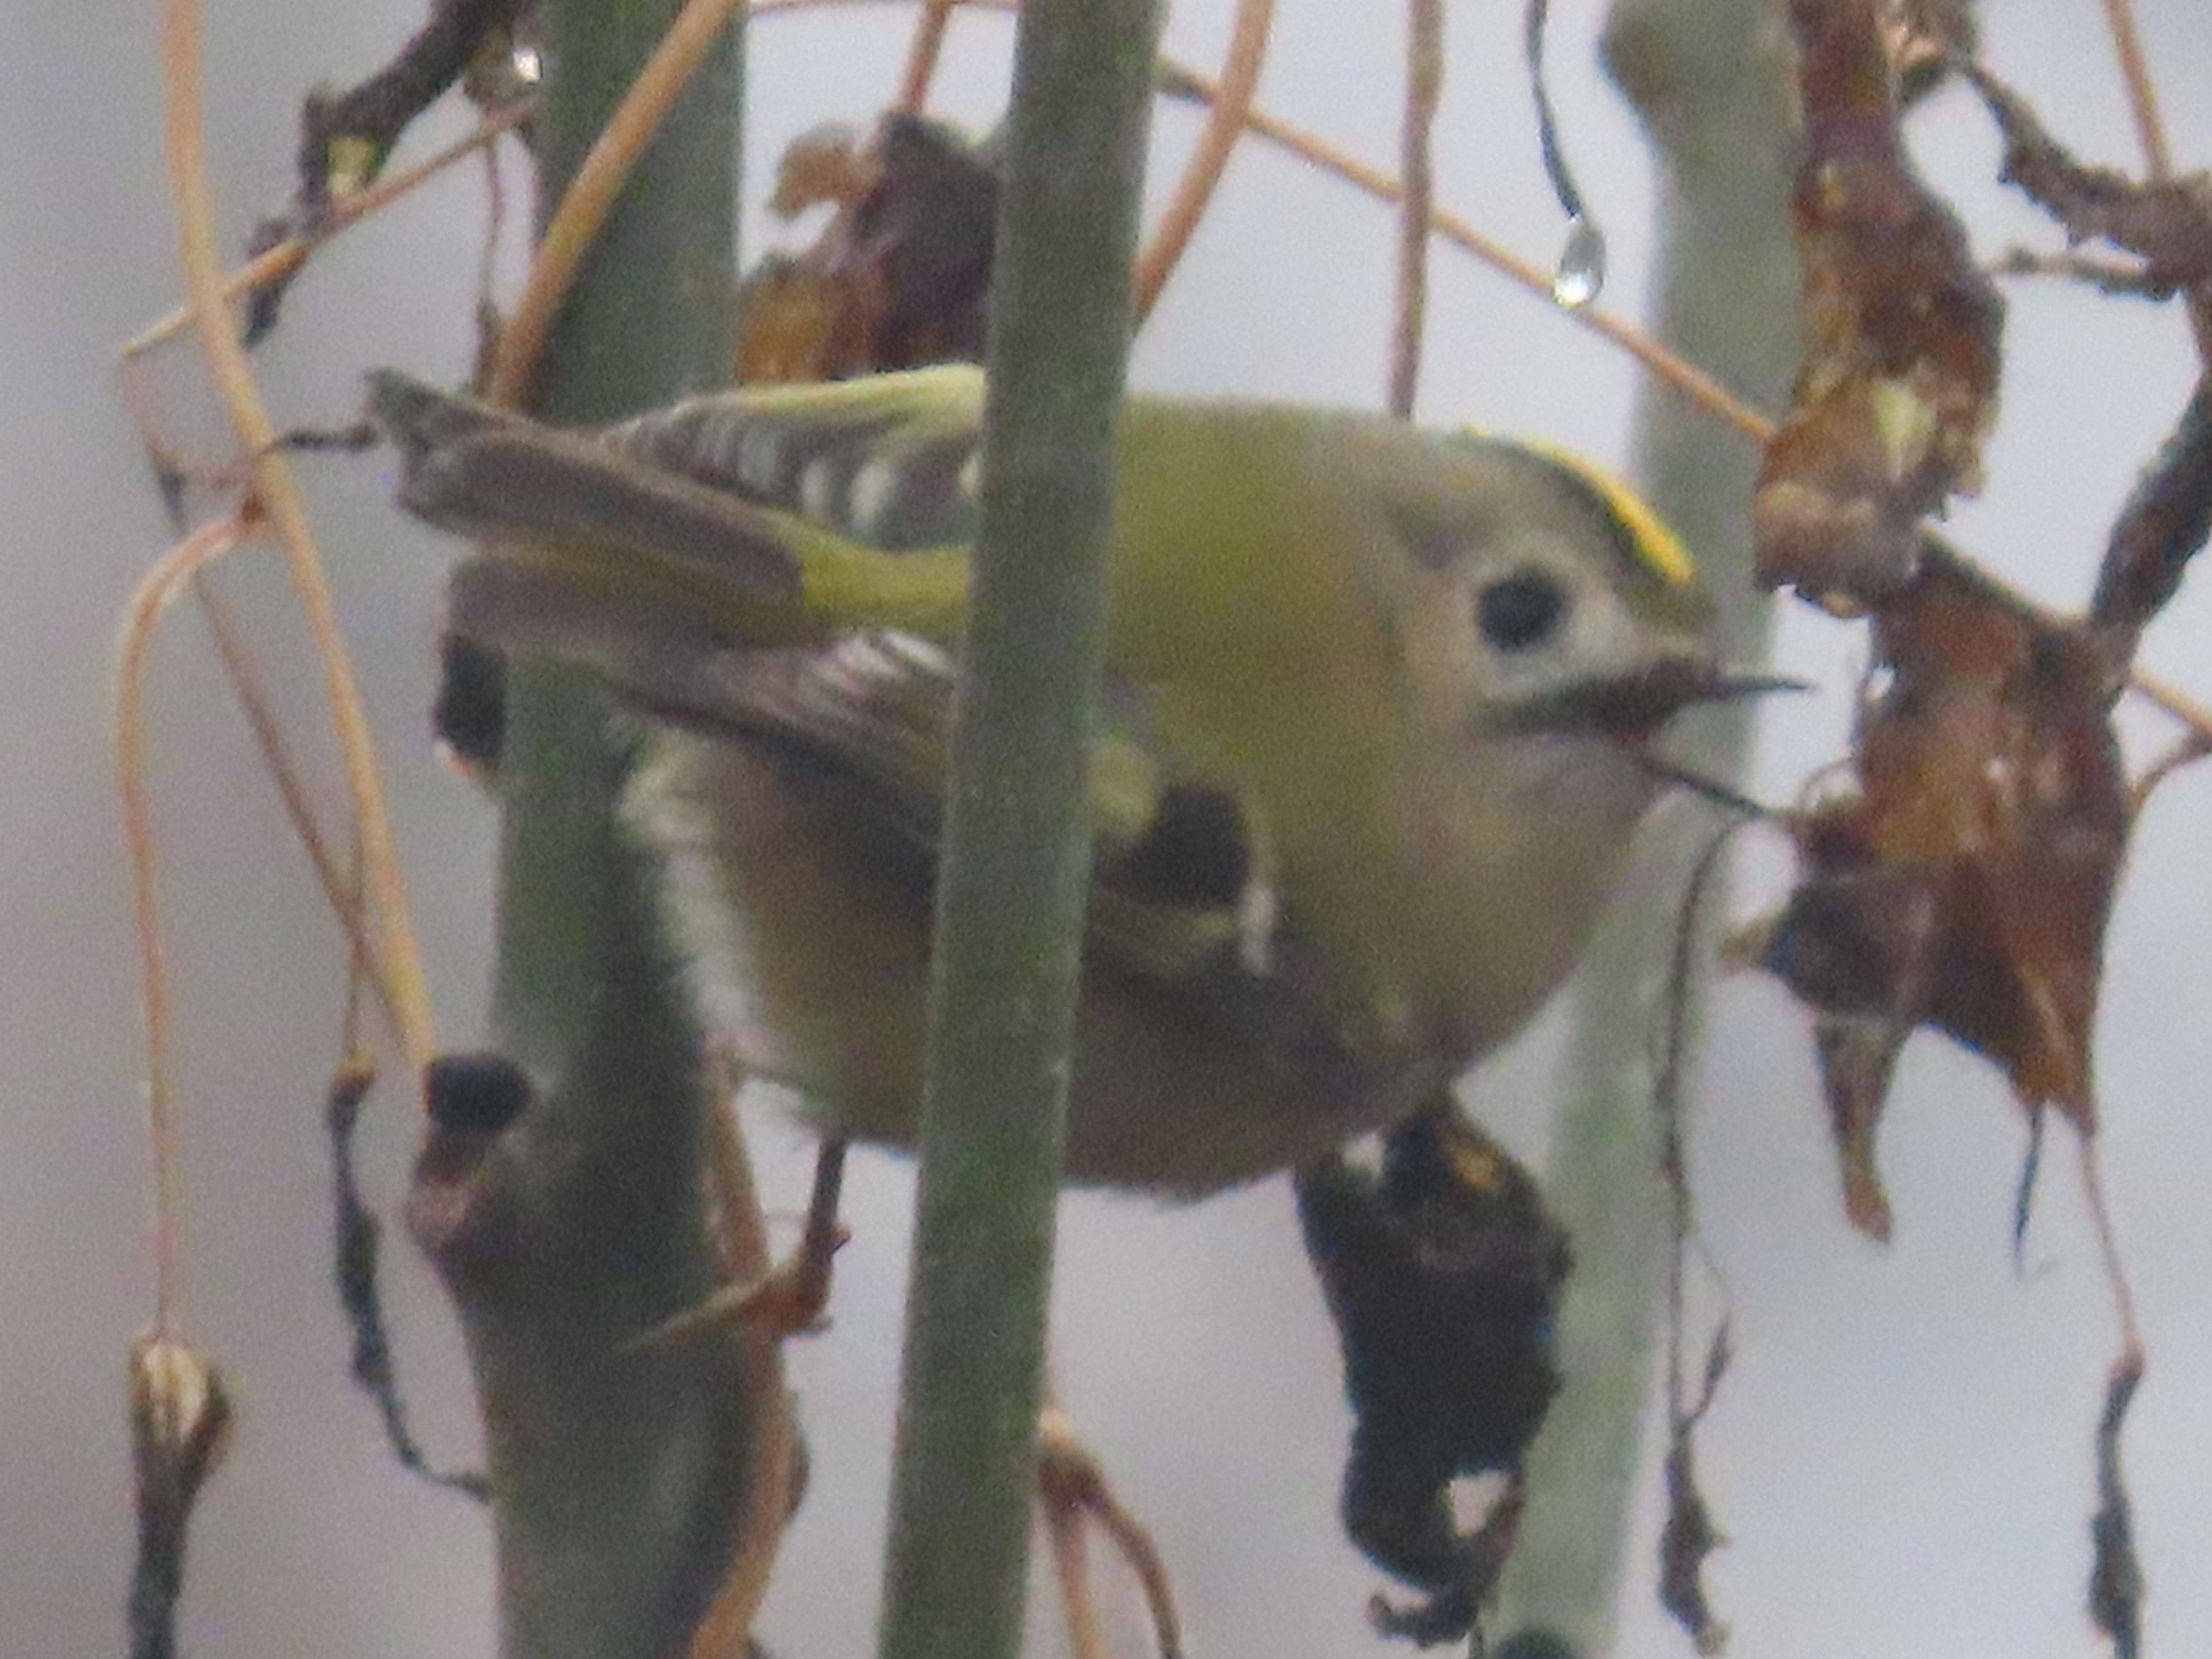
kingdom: Animalia
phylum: Chordata
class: Aves
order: Passeriformes
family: Regulidae
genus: Regulus
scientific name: Regulus regulus
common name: Fuglekonge
